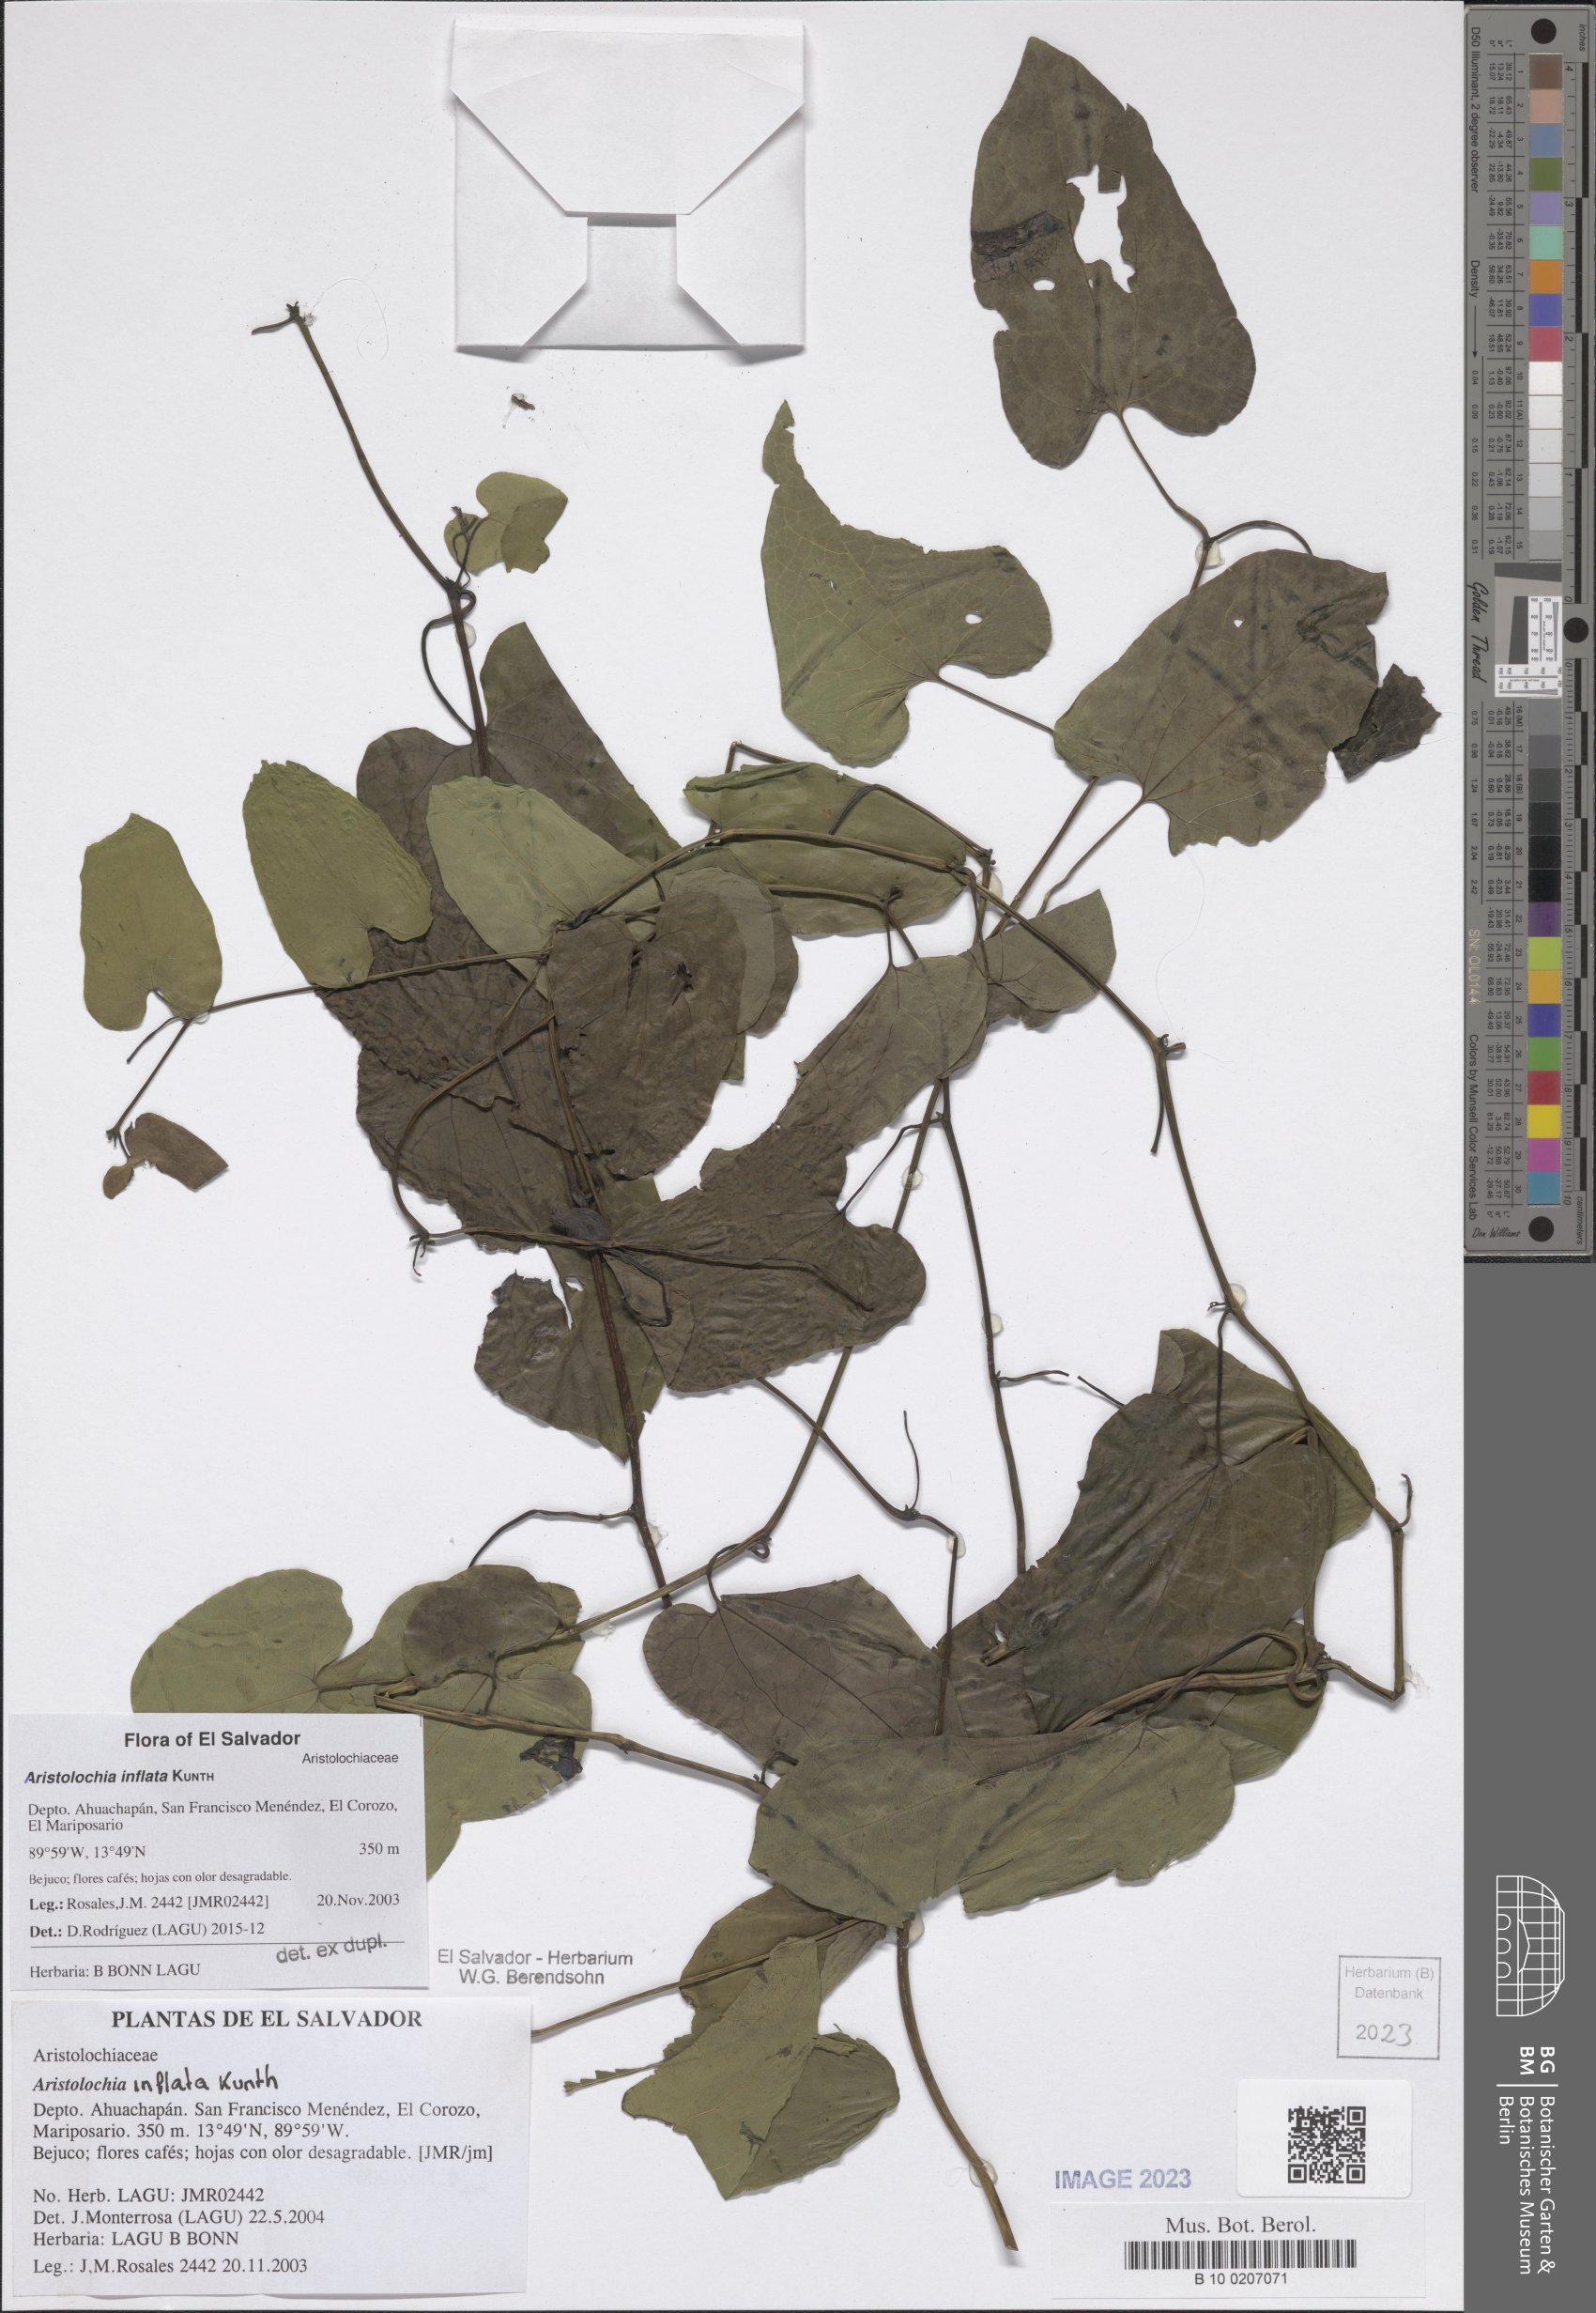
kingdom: Plantae
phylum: Tracheophyta
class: Magnoliopsida
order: Piperales
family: Aristolochiaceae
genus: Aristolochia
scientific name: Aristolochia inflata
